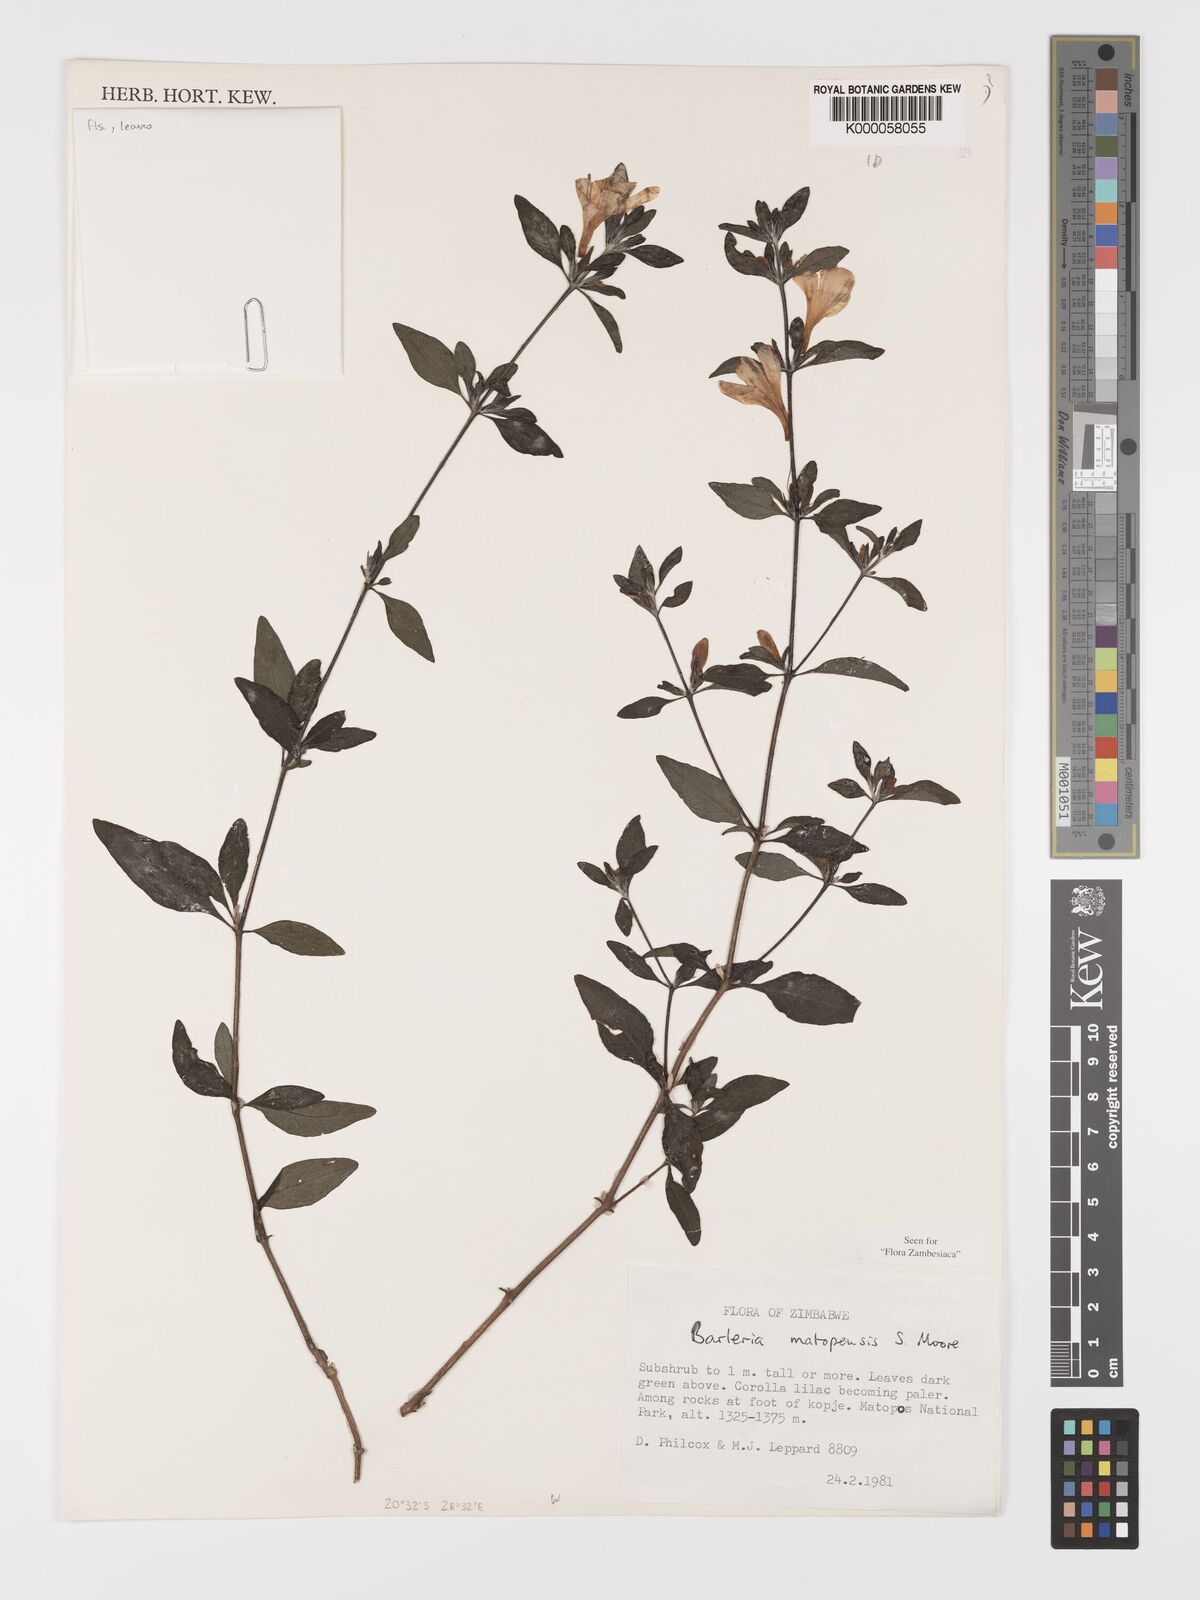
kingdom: Plantae
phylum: Tracheophyta
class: Magnoliopsida
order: Lamiales
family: Acanthaceae
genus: Barleria
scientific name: Barleria matopensis
